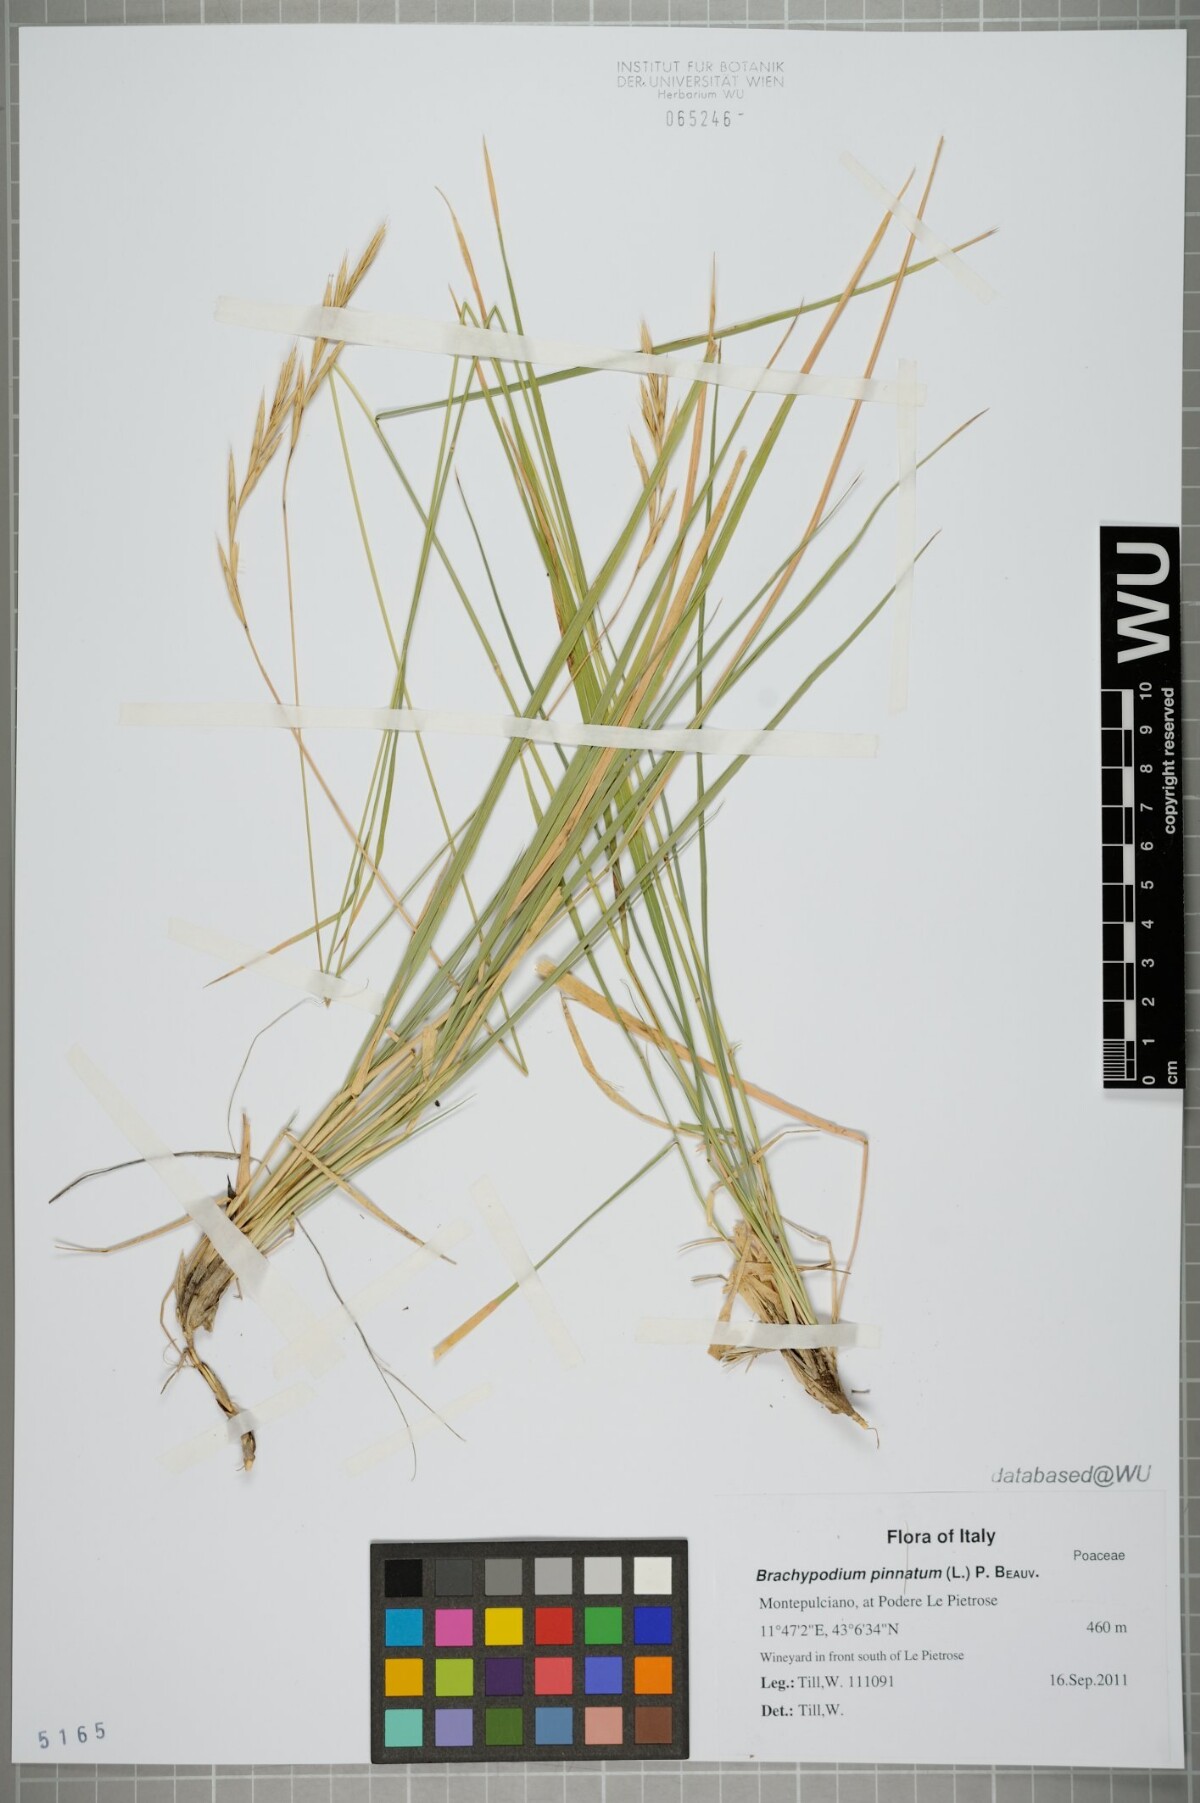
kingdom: Plantae
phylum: Tracheophyta
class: Liliopsida
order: Poales
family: Poaceae
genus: Brachypodium
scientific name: Brachypodium pinnatum
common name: Tor grass
